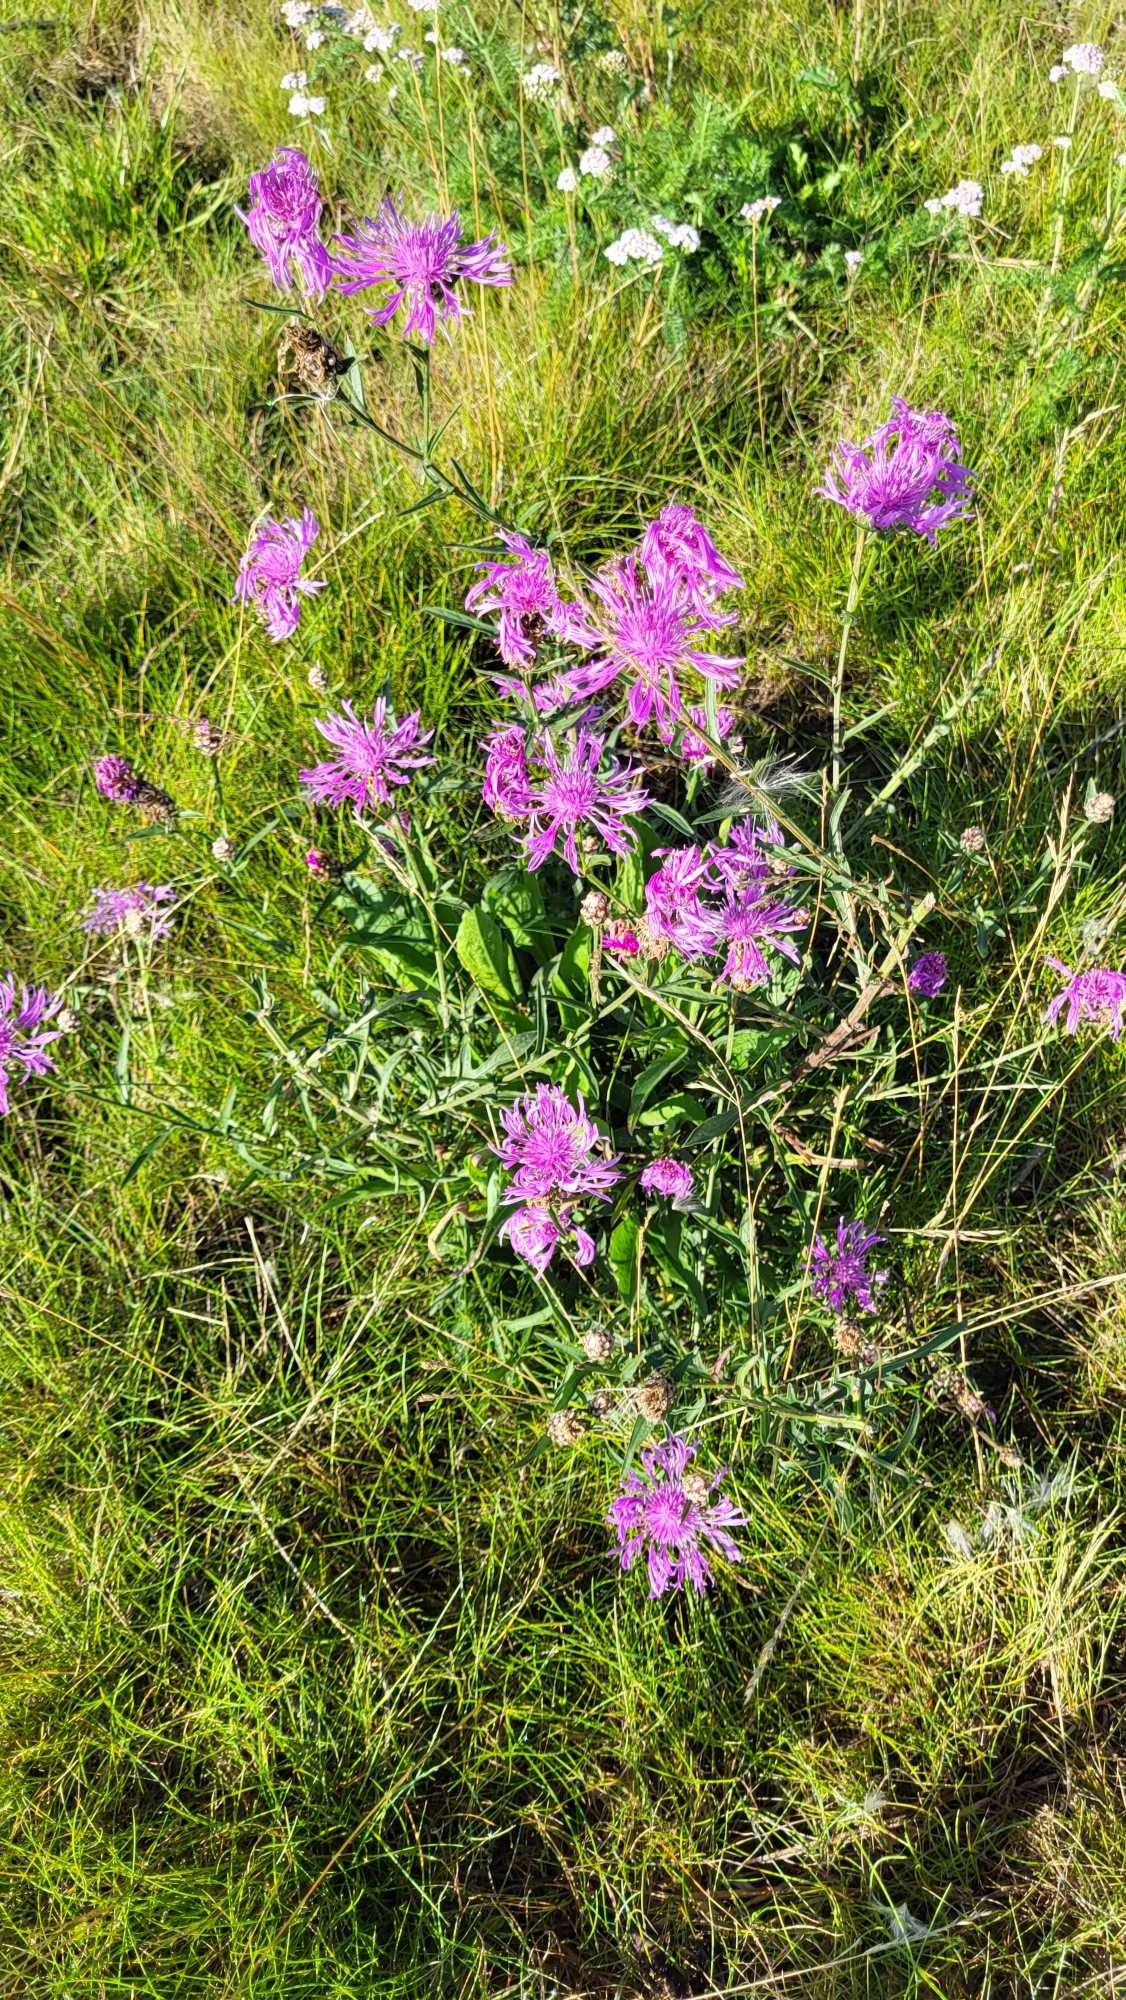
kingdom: Plantae
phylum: Tracheophyta
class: Magnoliopsida
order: Asterales
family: Asteraceae
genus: Centaurea
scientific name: Centaurea jacea
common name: Almindelig knopurt
